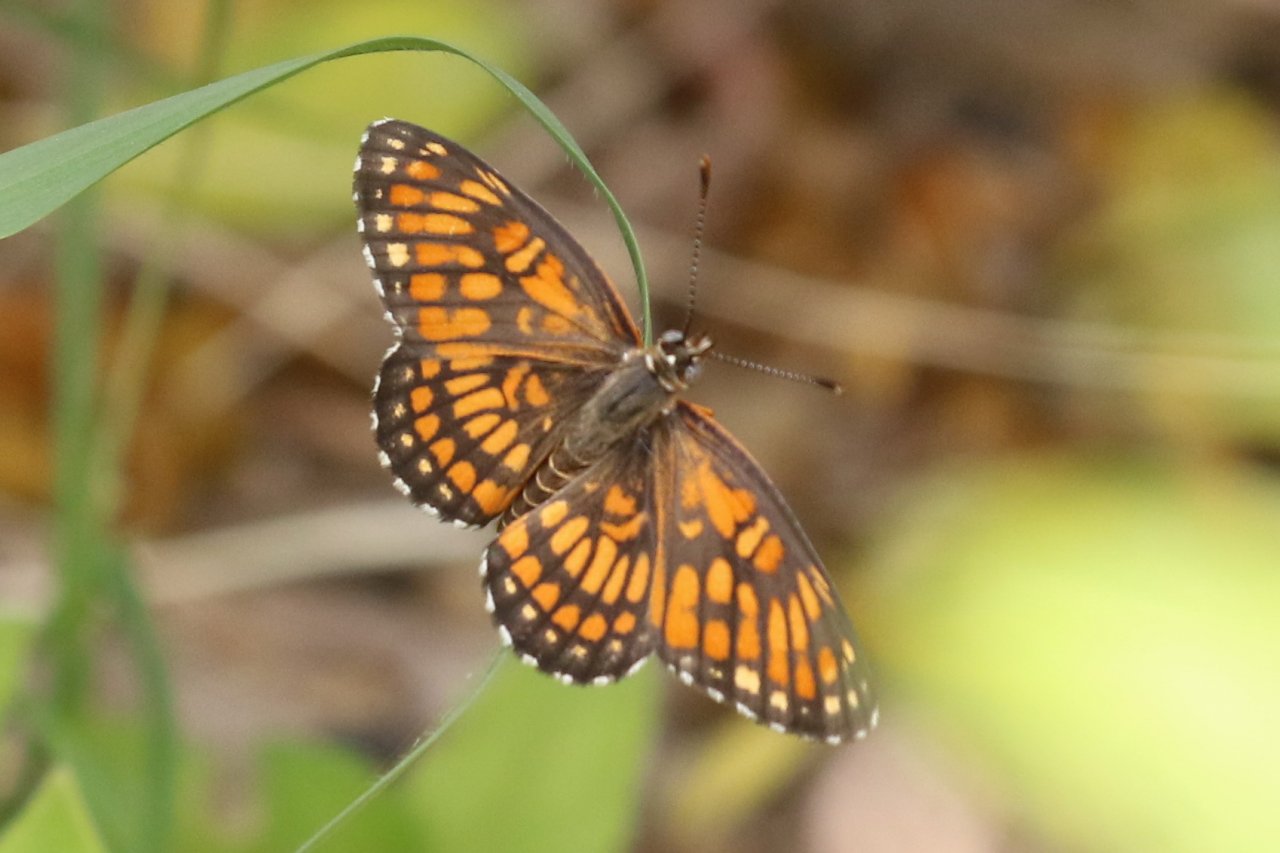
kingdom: Animalia
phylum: Arthropoda
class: Insecta
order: Lepidoptera
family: Nymphalidae
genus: Thessalia
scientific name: Thessalia theona
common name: Theona Checkerspot
